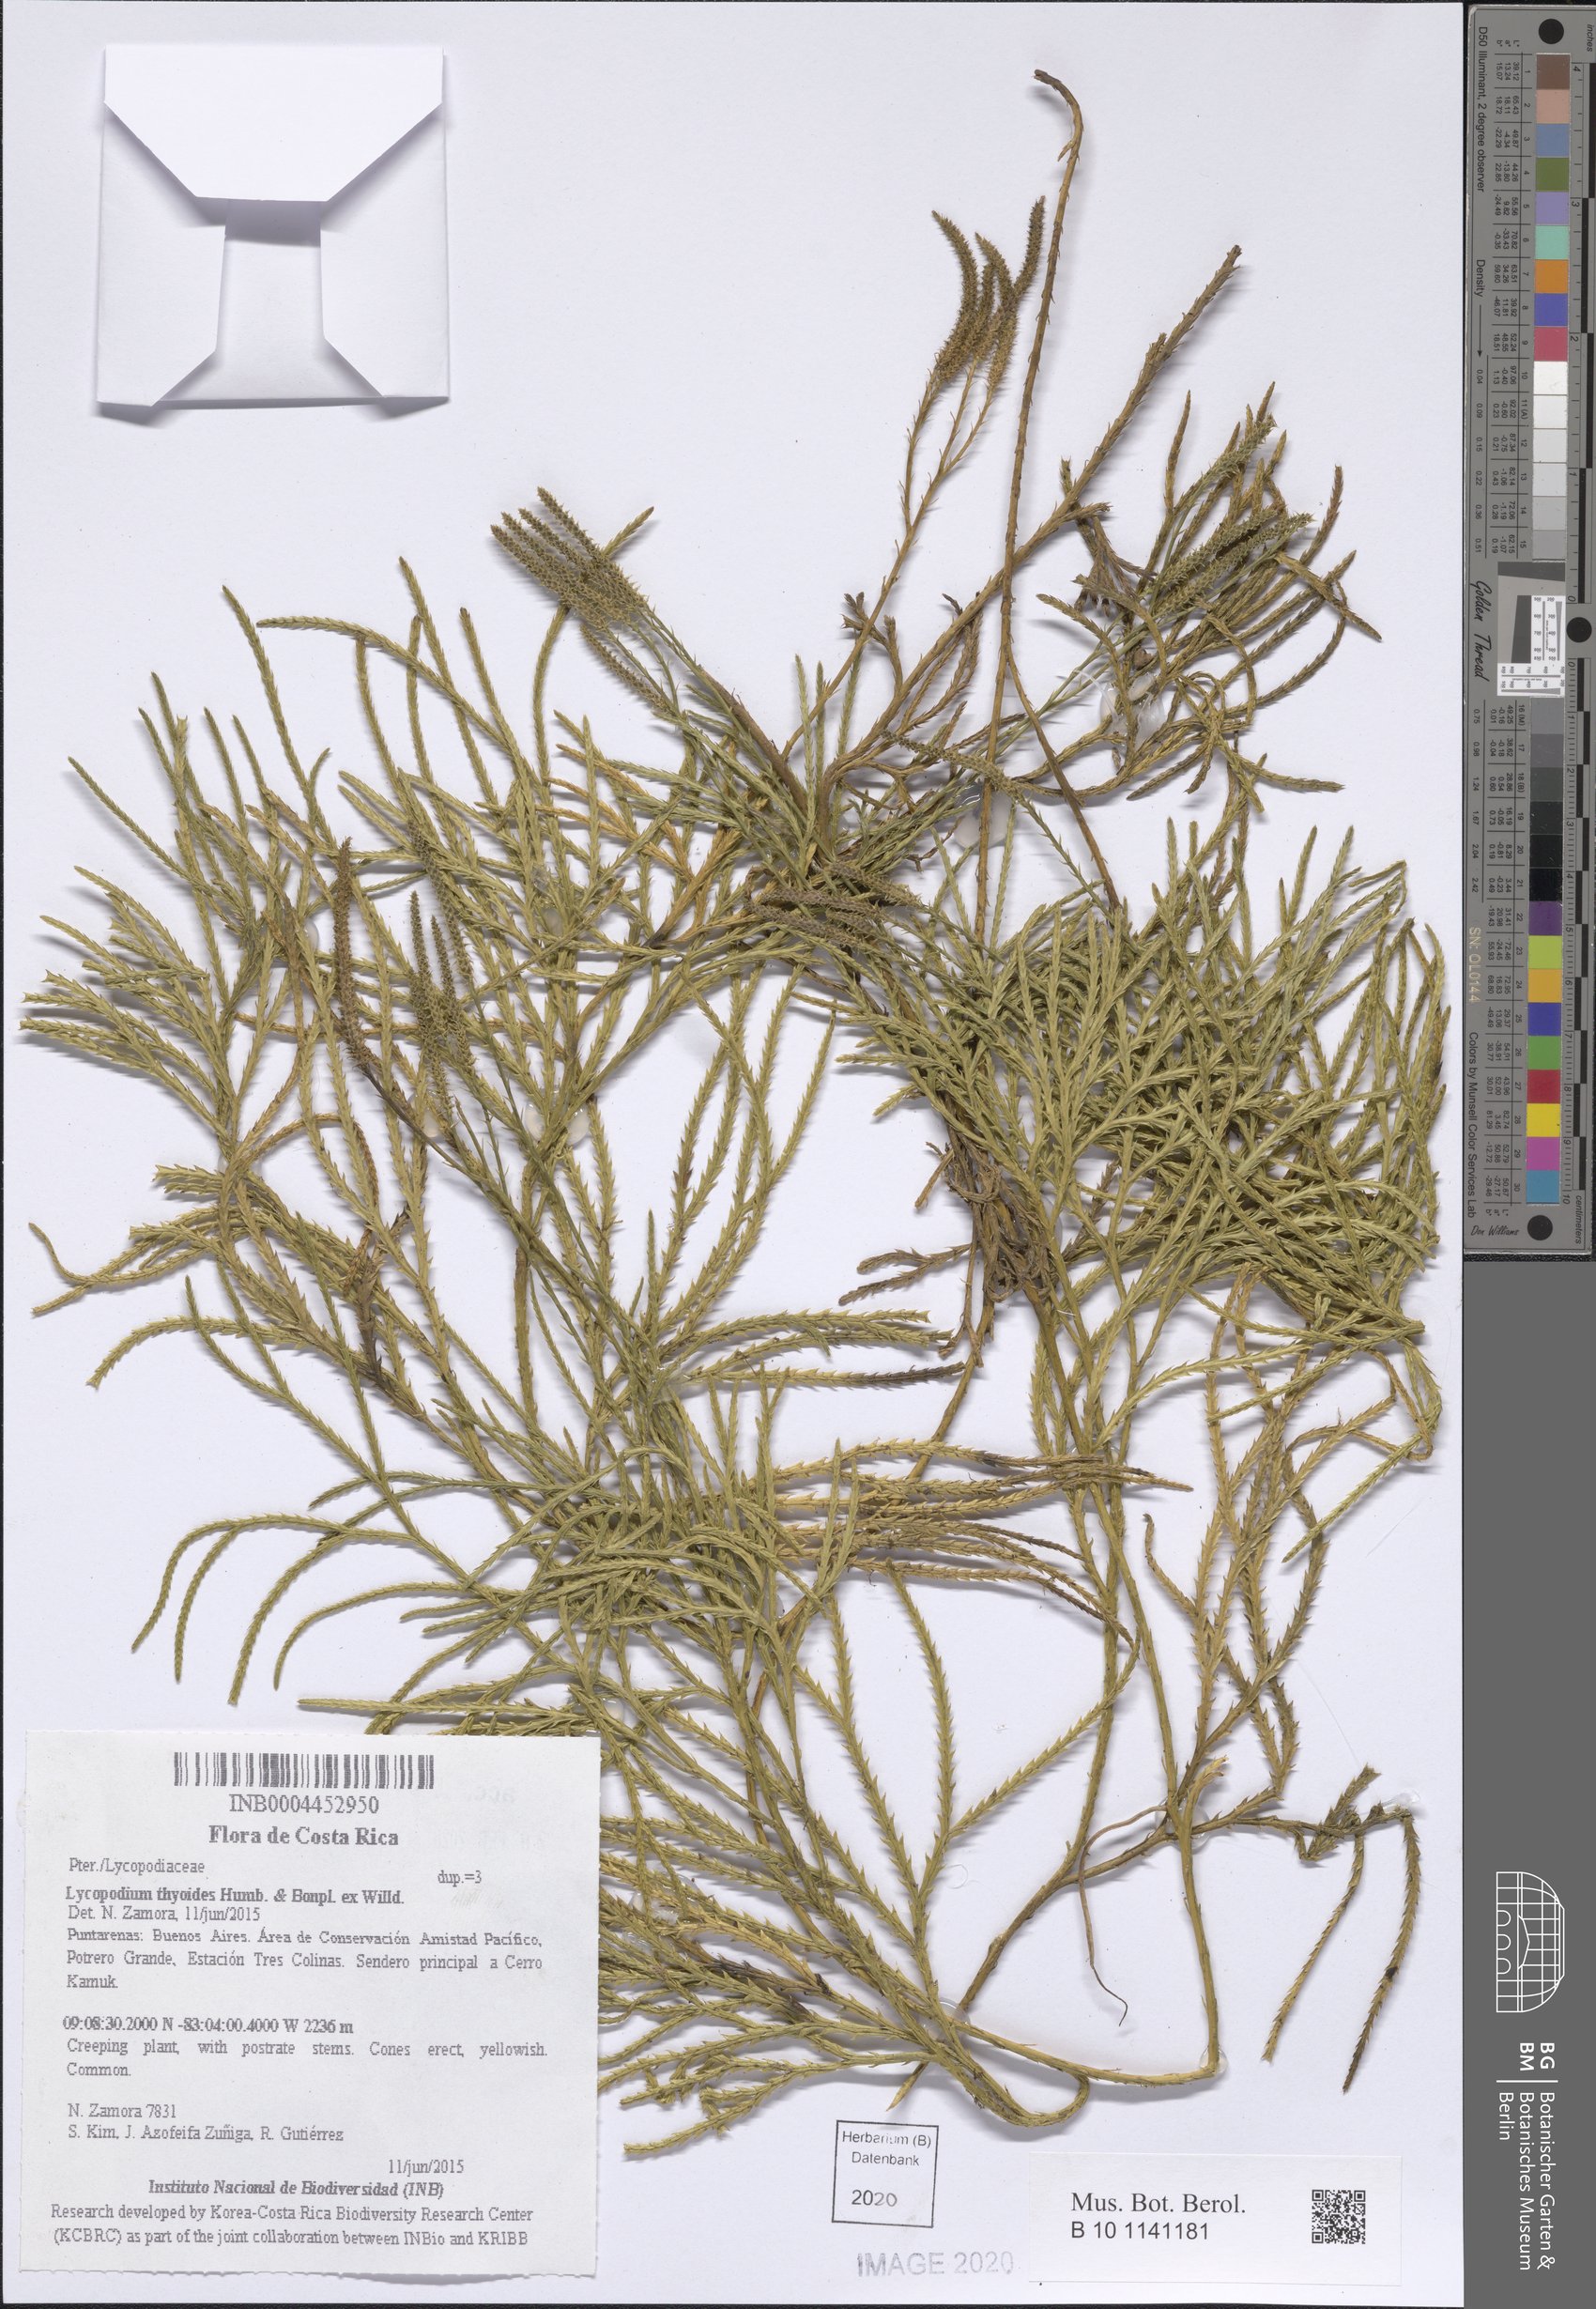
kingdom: Plantae
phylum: Tracheophyta
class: Lycopodiopsida
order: Lycopodiales
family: Lycopodiaceae
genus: Diphasiastrum
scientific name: Diphasiastrum thyoides
